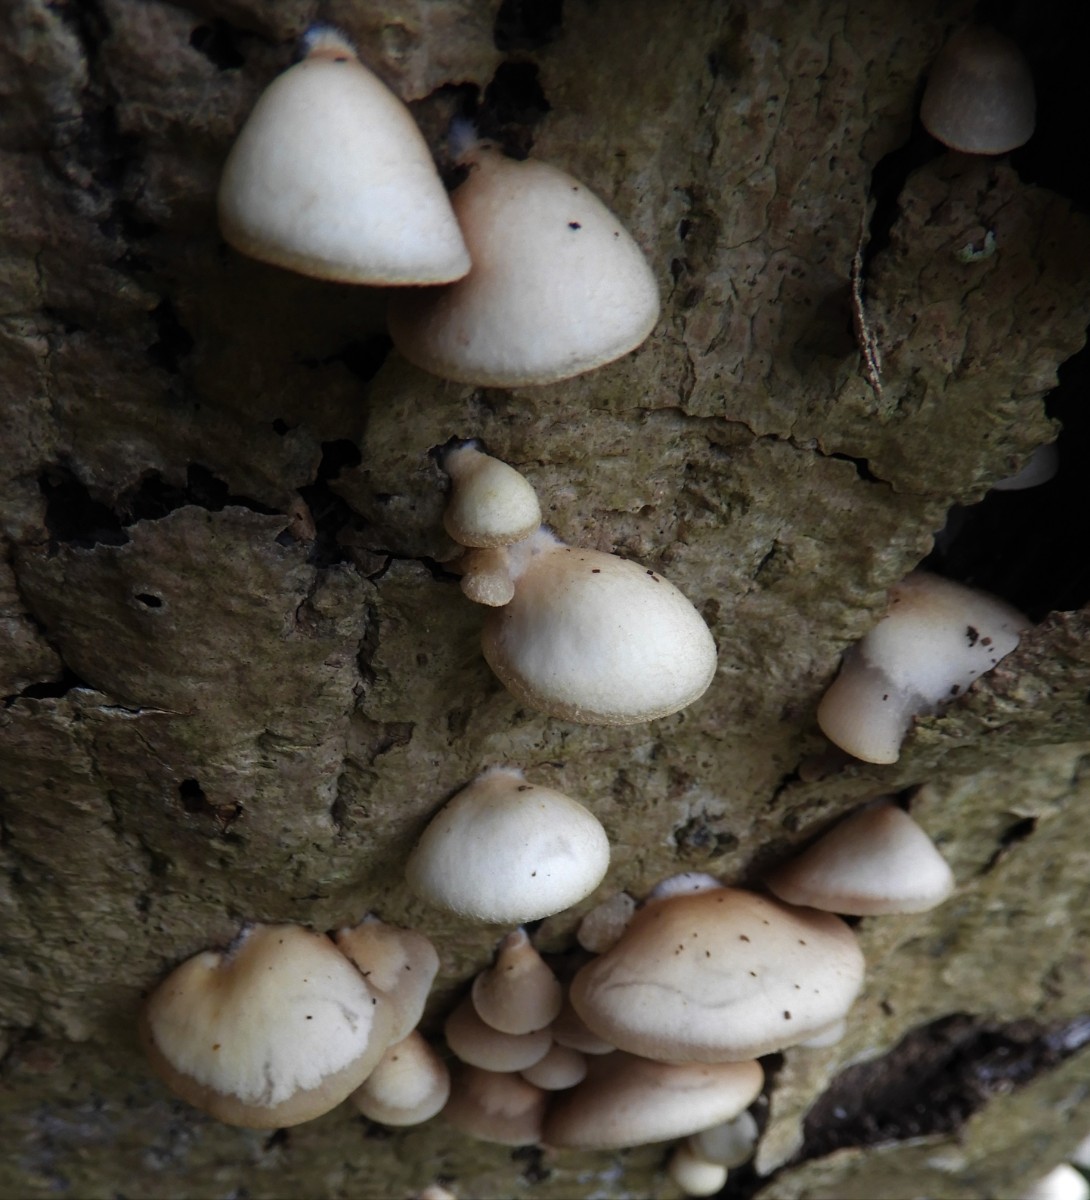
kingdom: Fungi
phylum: Basidiomycota
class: Agaricomycetes
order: Agaricales
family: Crepidotaceae
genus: Crepidotus
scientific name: Crepidotus mollis
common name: blød muslingesvamp
